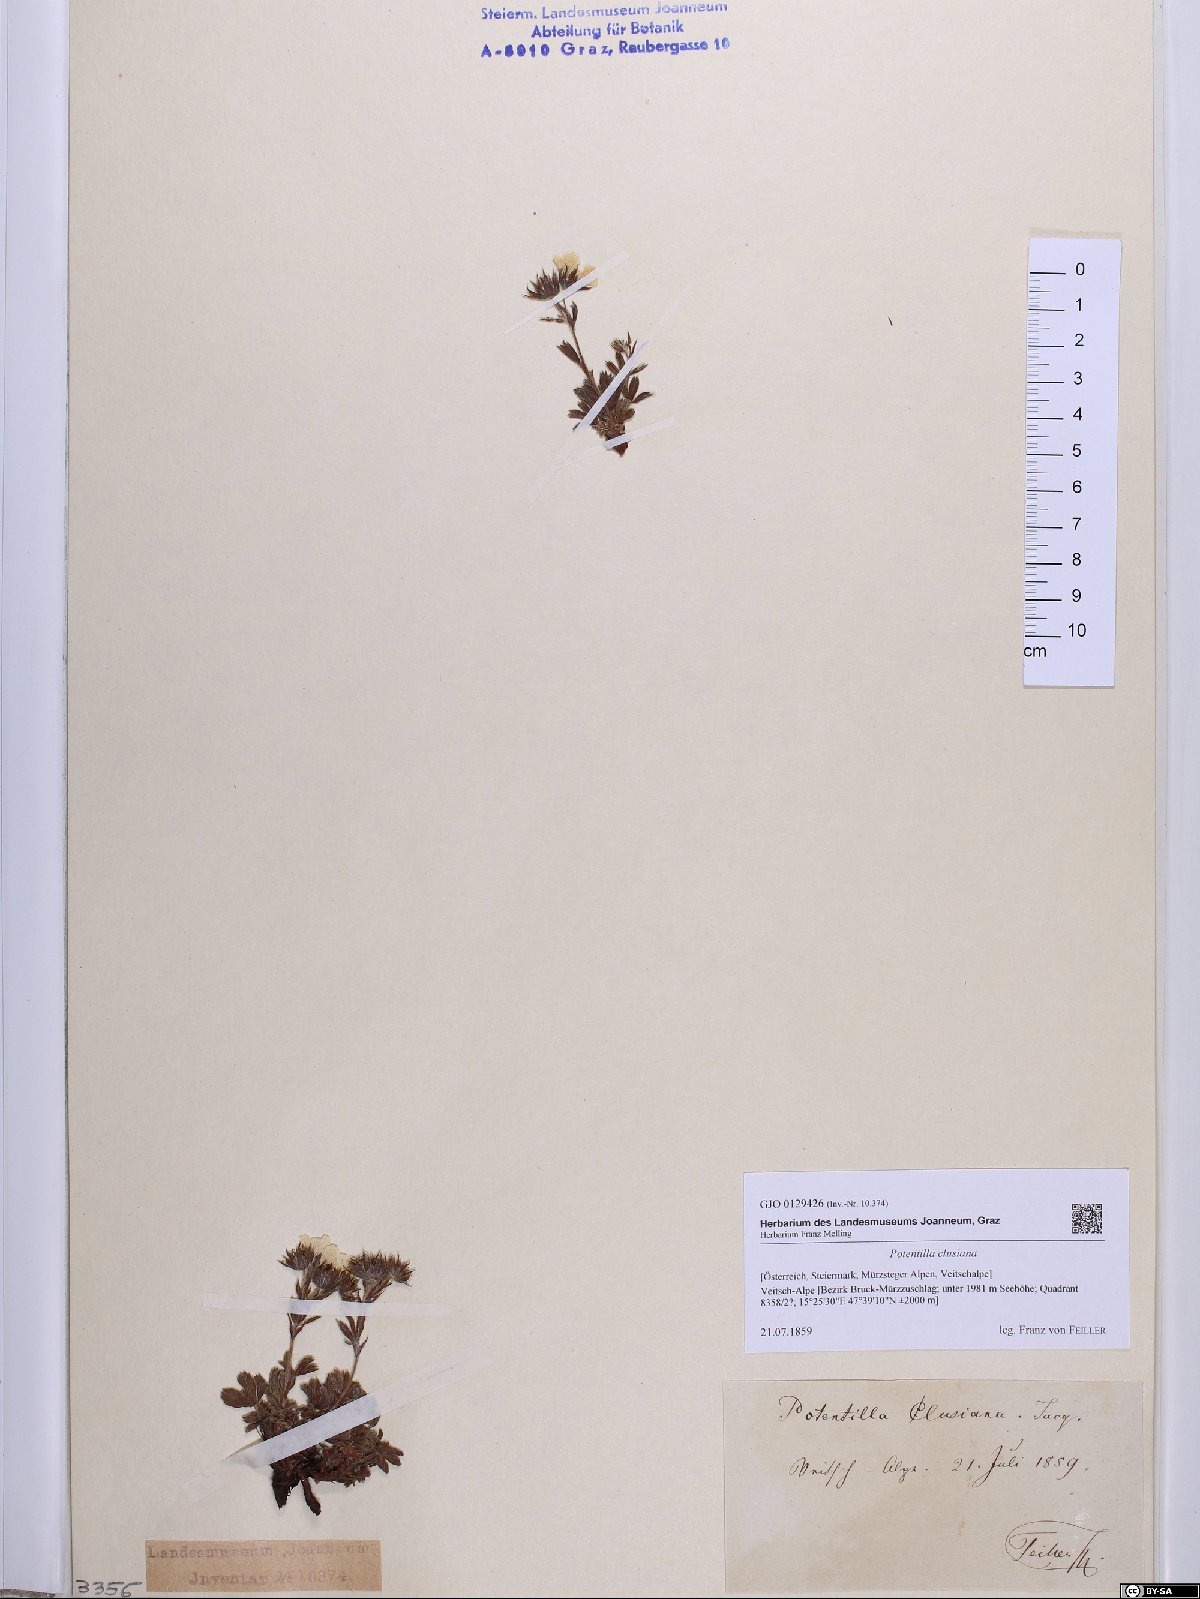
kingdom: Plantae
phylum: Tracheophyta
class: Magnoliopsida
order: Rosales
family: Rosaceae
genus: Potentilla
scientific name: Potentilla clusiana
